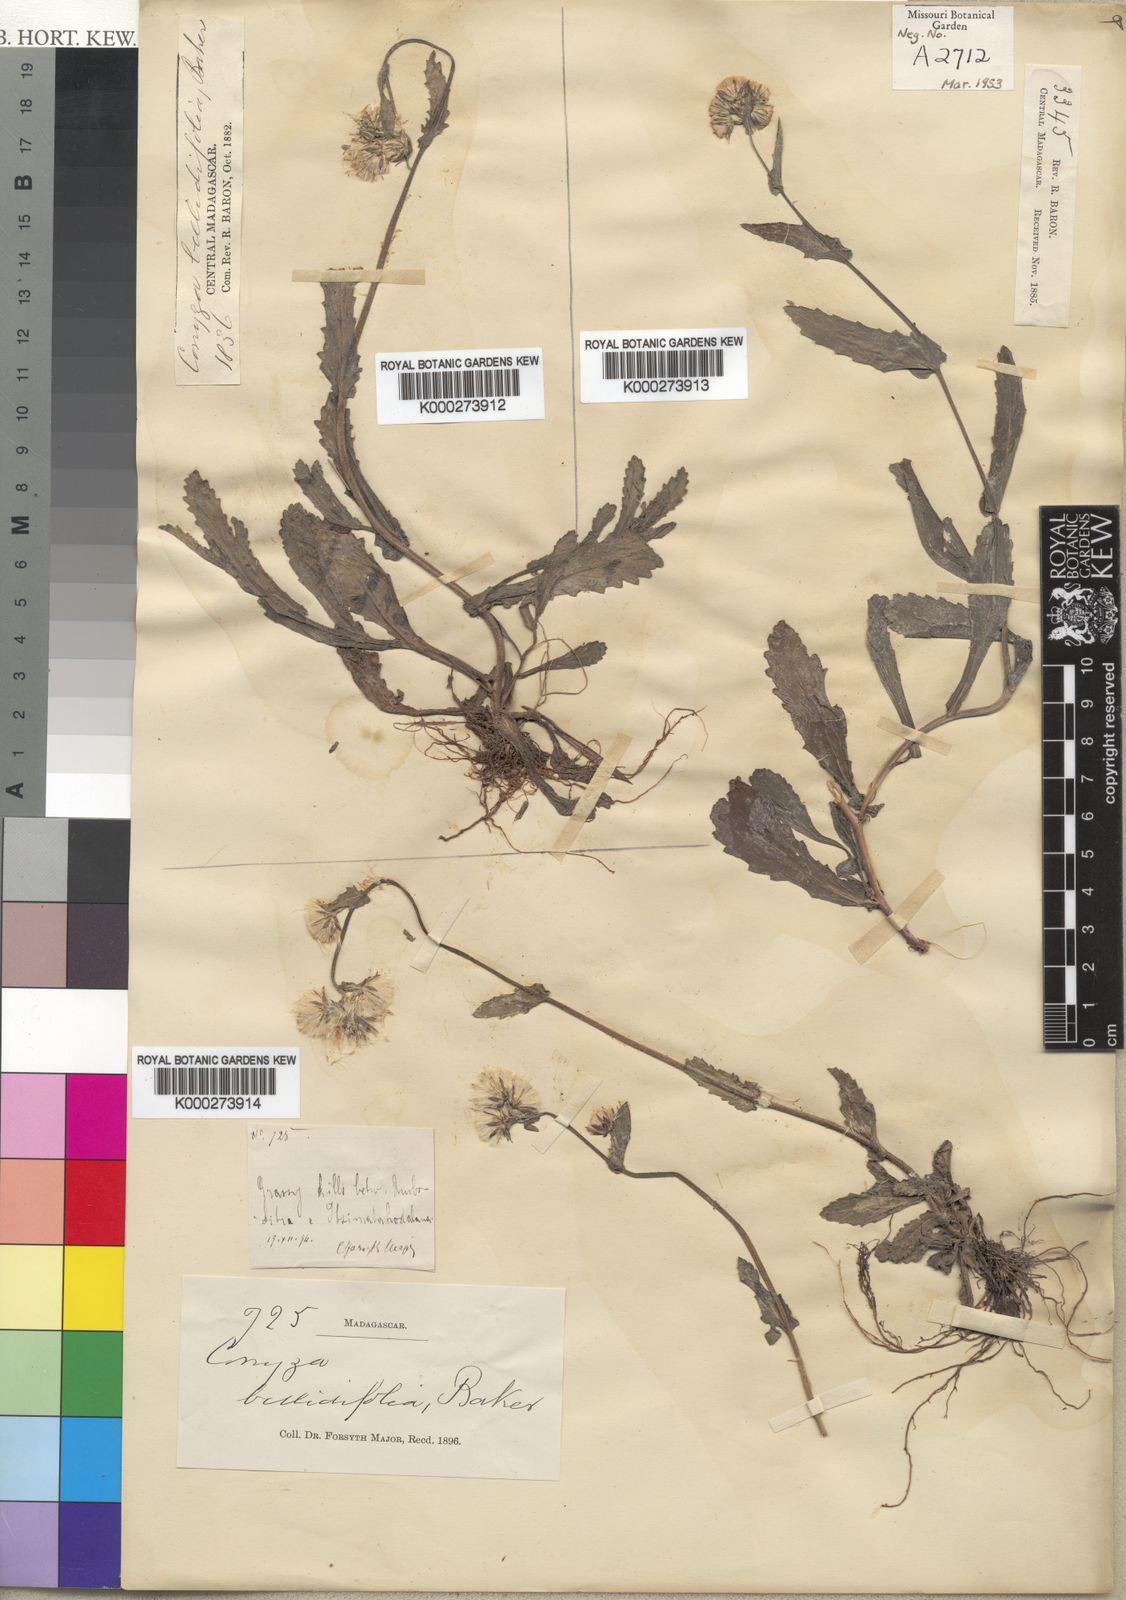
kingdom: Plantae
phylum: Tracheophyta
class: Magnoliopsida
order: Asterales
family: Asteraceae
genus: Conyza
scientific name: Conyza
